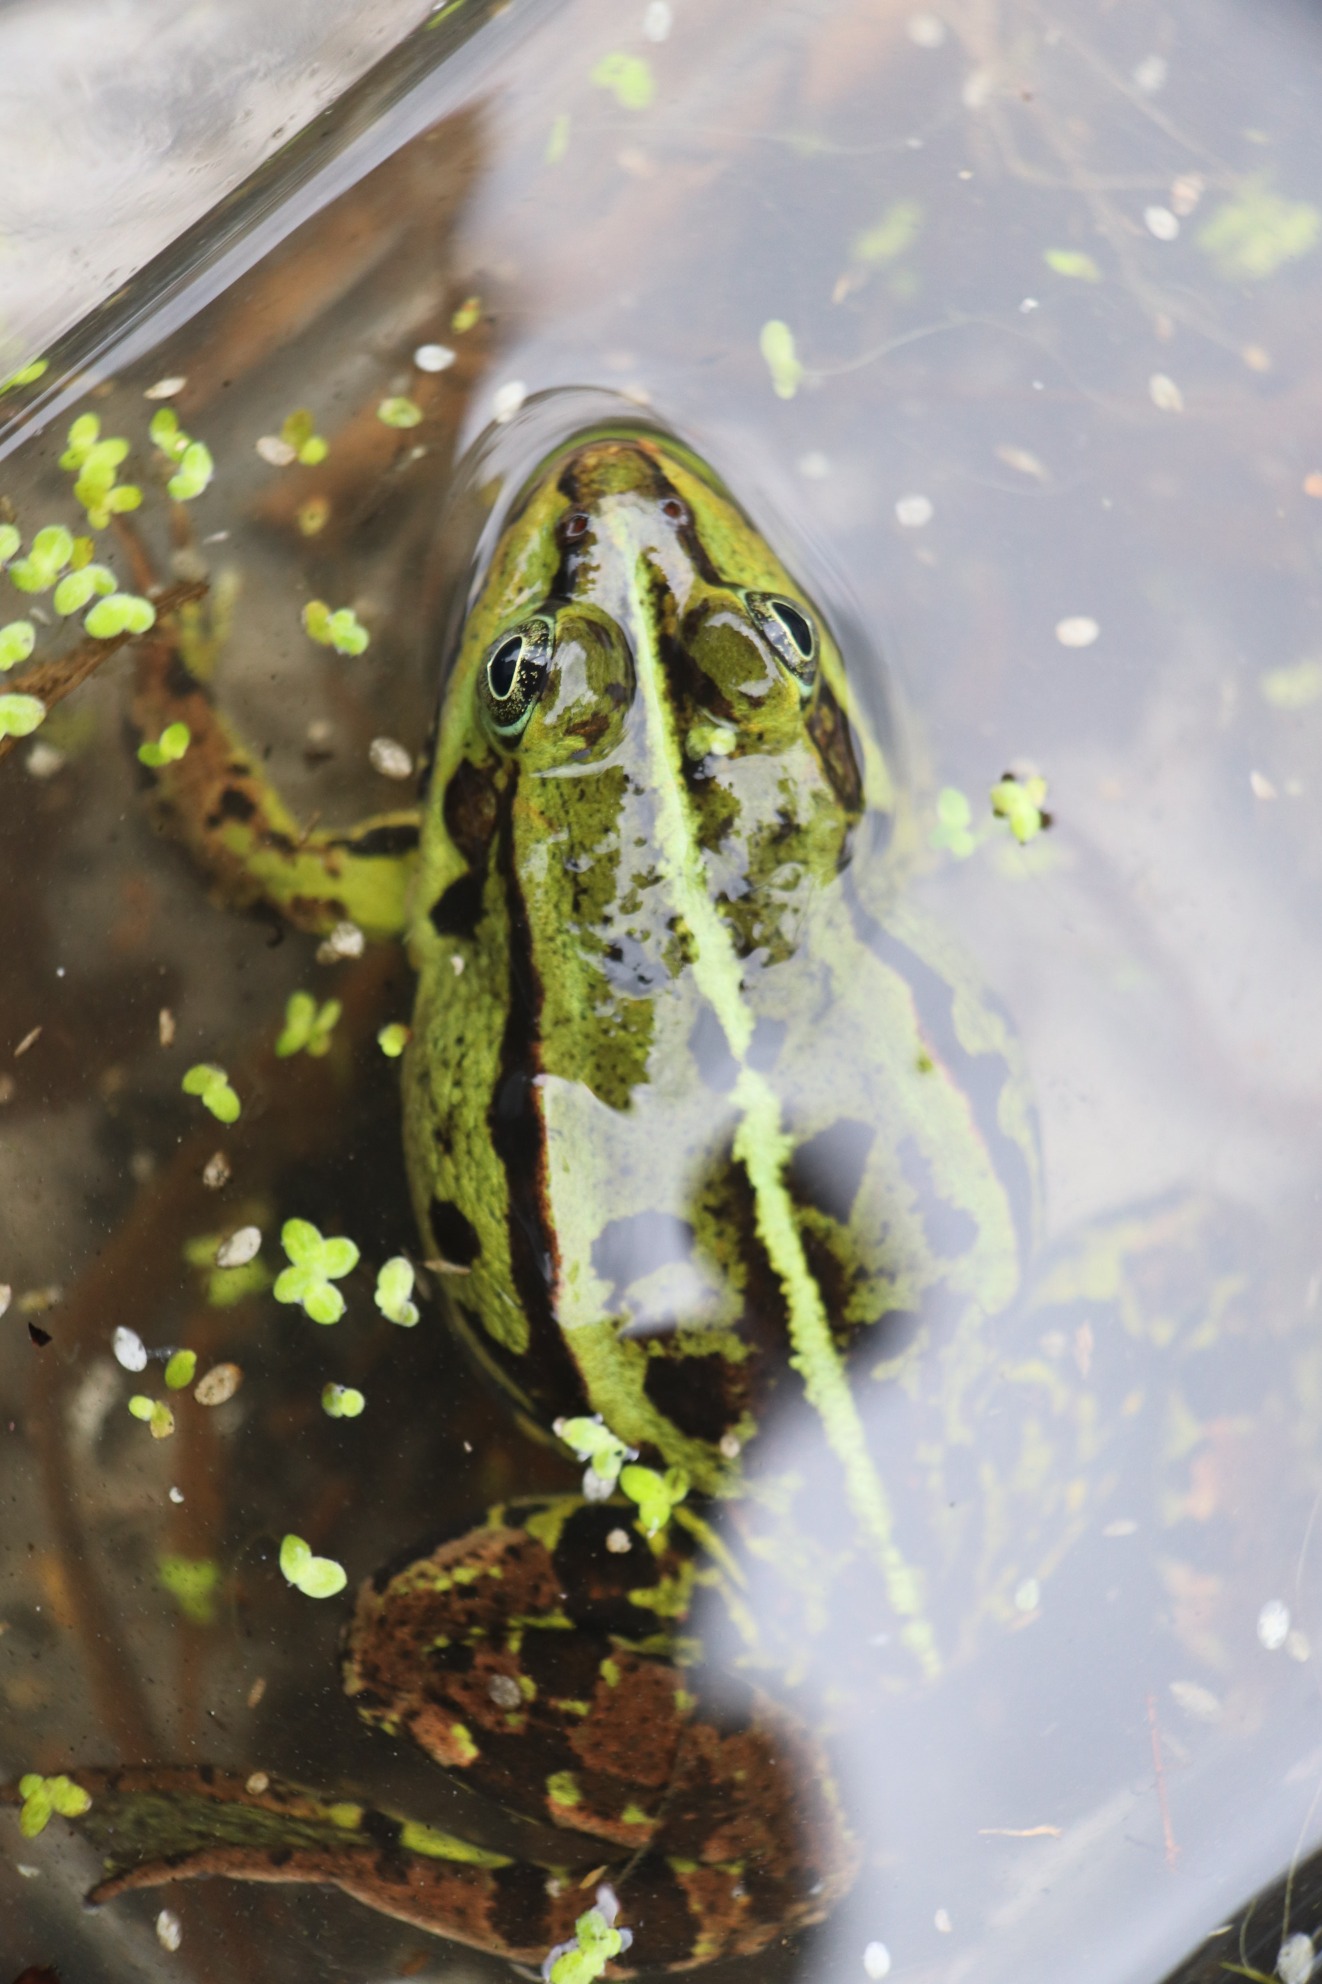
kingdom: Animalia
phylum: Chordata
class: Amphibia
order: Anura
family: Ranidae
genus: Pelophylax
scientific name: Pelophylax lessonae
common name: Grøn frø
